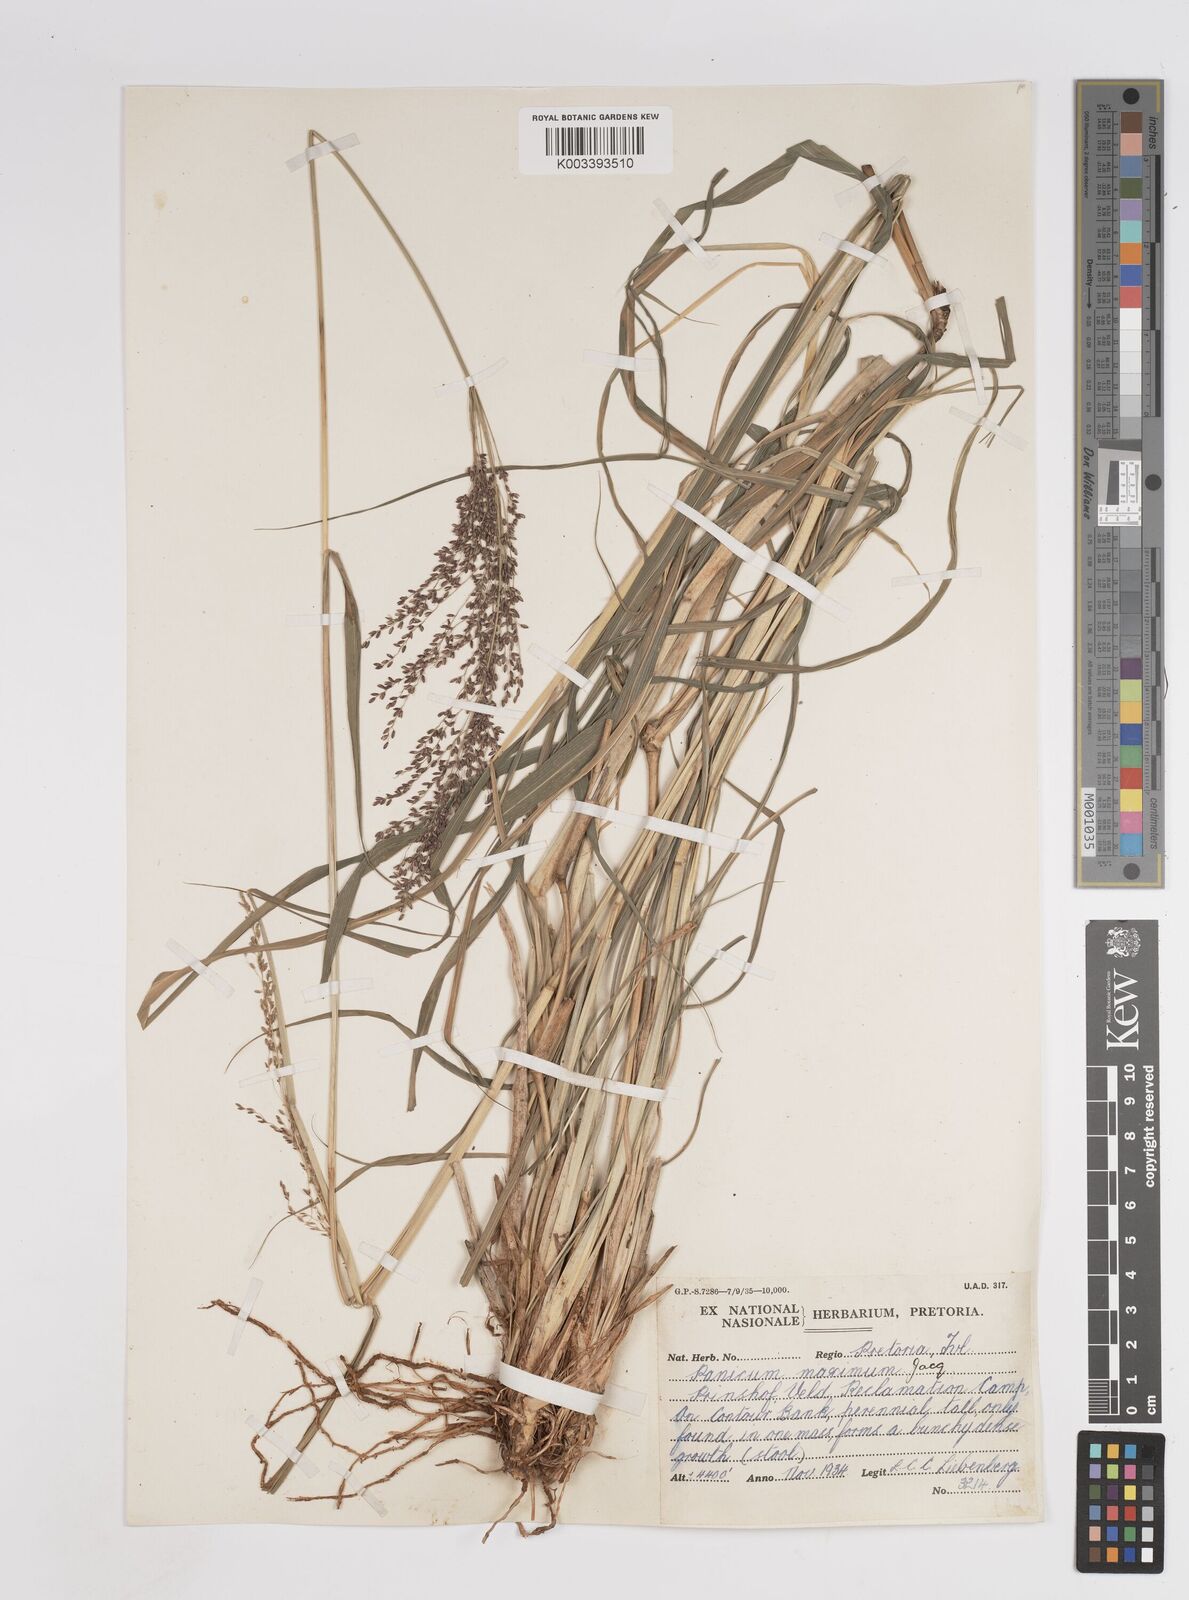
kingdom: Plantae
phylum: Tracheophyta
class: Liliopsida
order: Poales
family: Poaceae
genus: Megathyrsus
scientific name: Megathyrsus maximus
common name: Guineagrass
